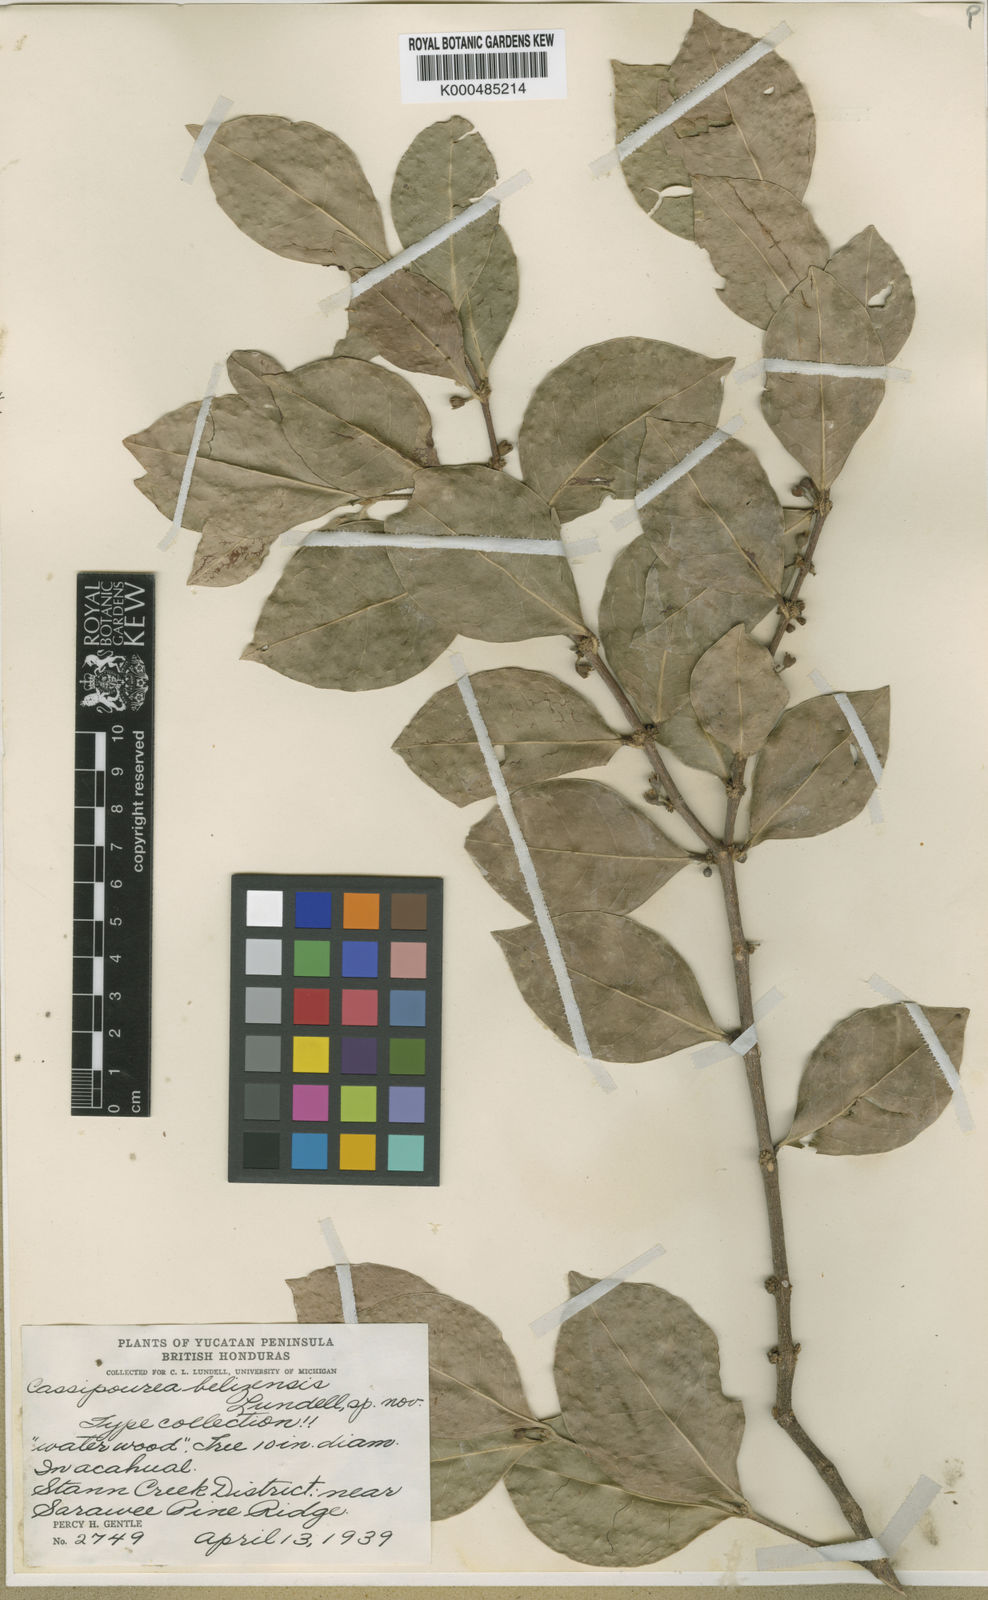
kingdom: Plantae
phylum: Tracheophyta
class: Magnoliopsida
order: Malpighiales
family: Rhizophoraceae
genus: Cassipourea
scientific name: Cassipourea elliptica
